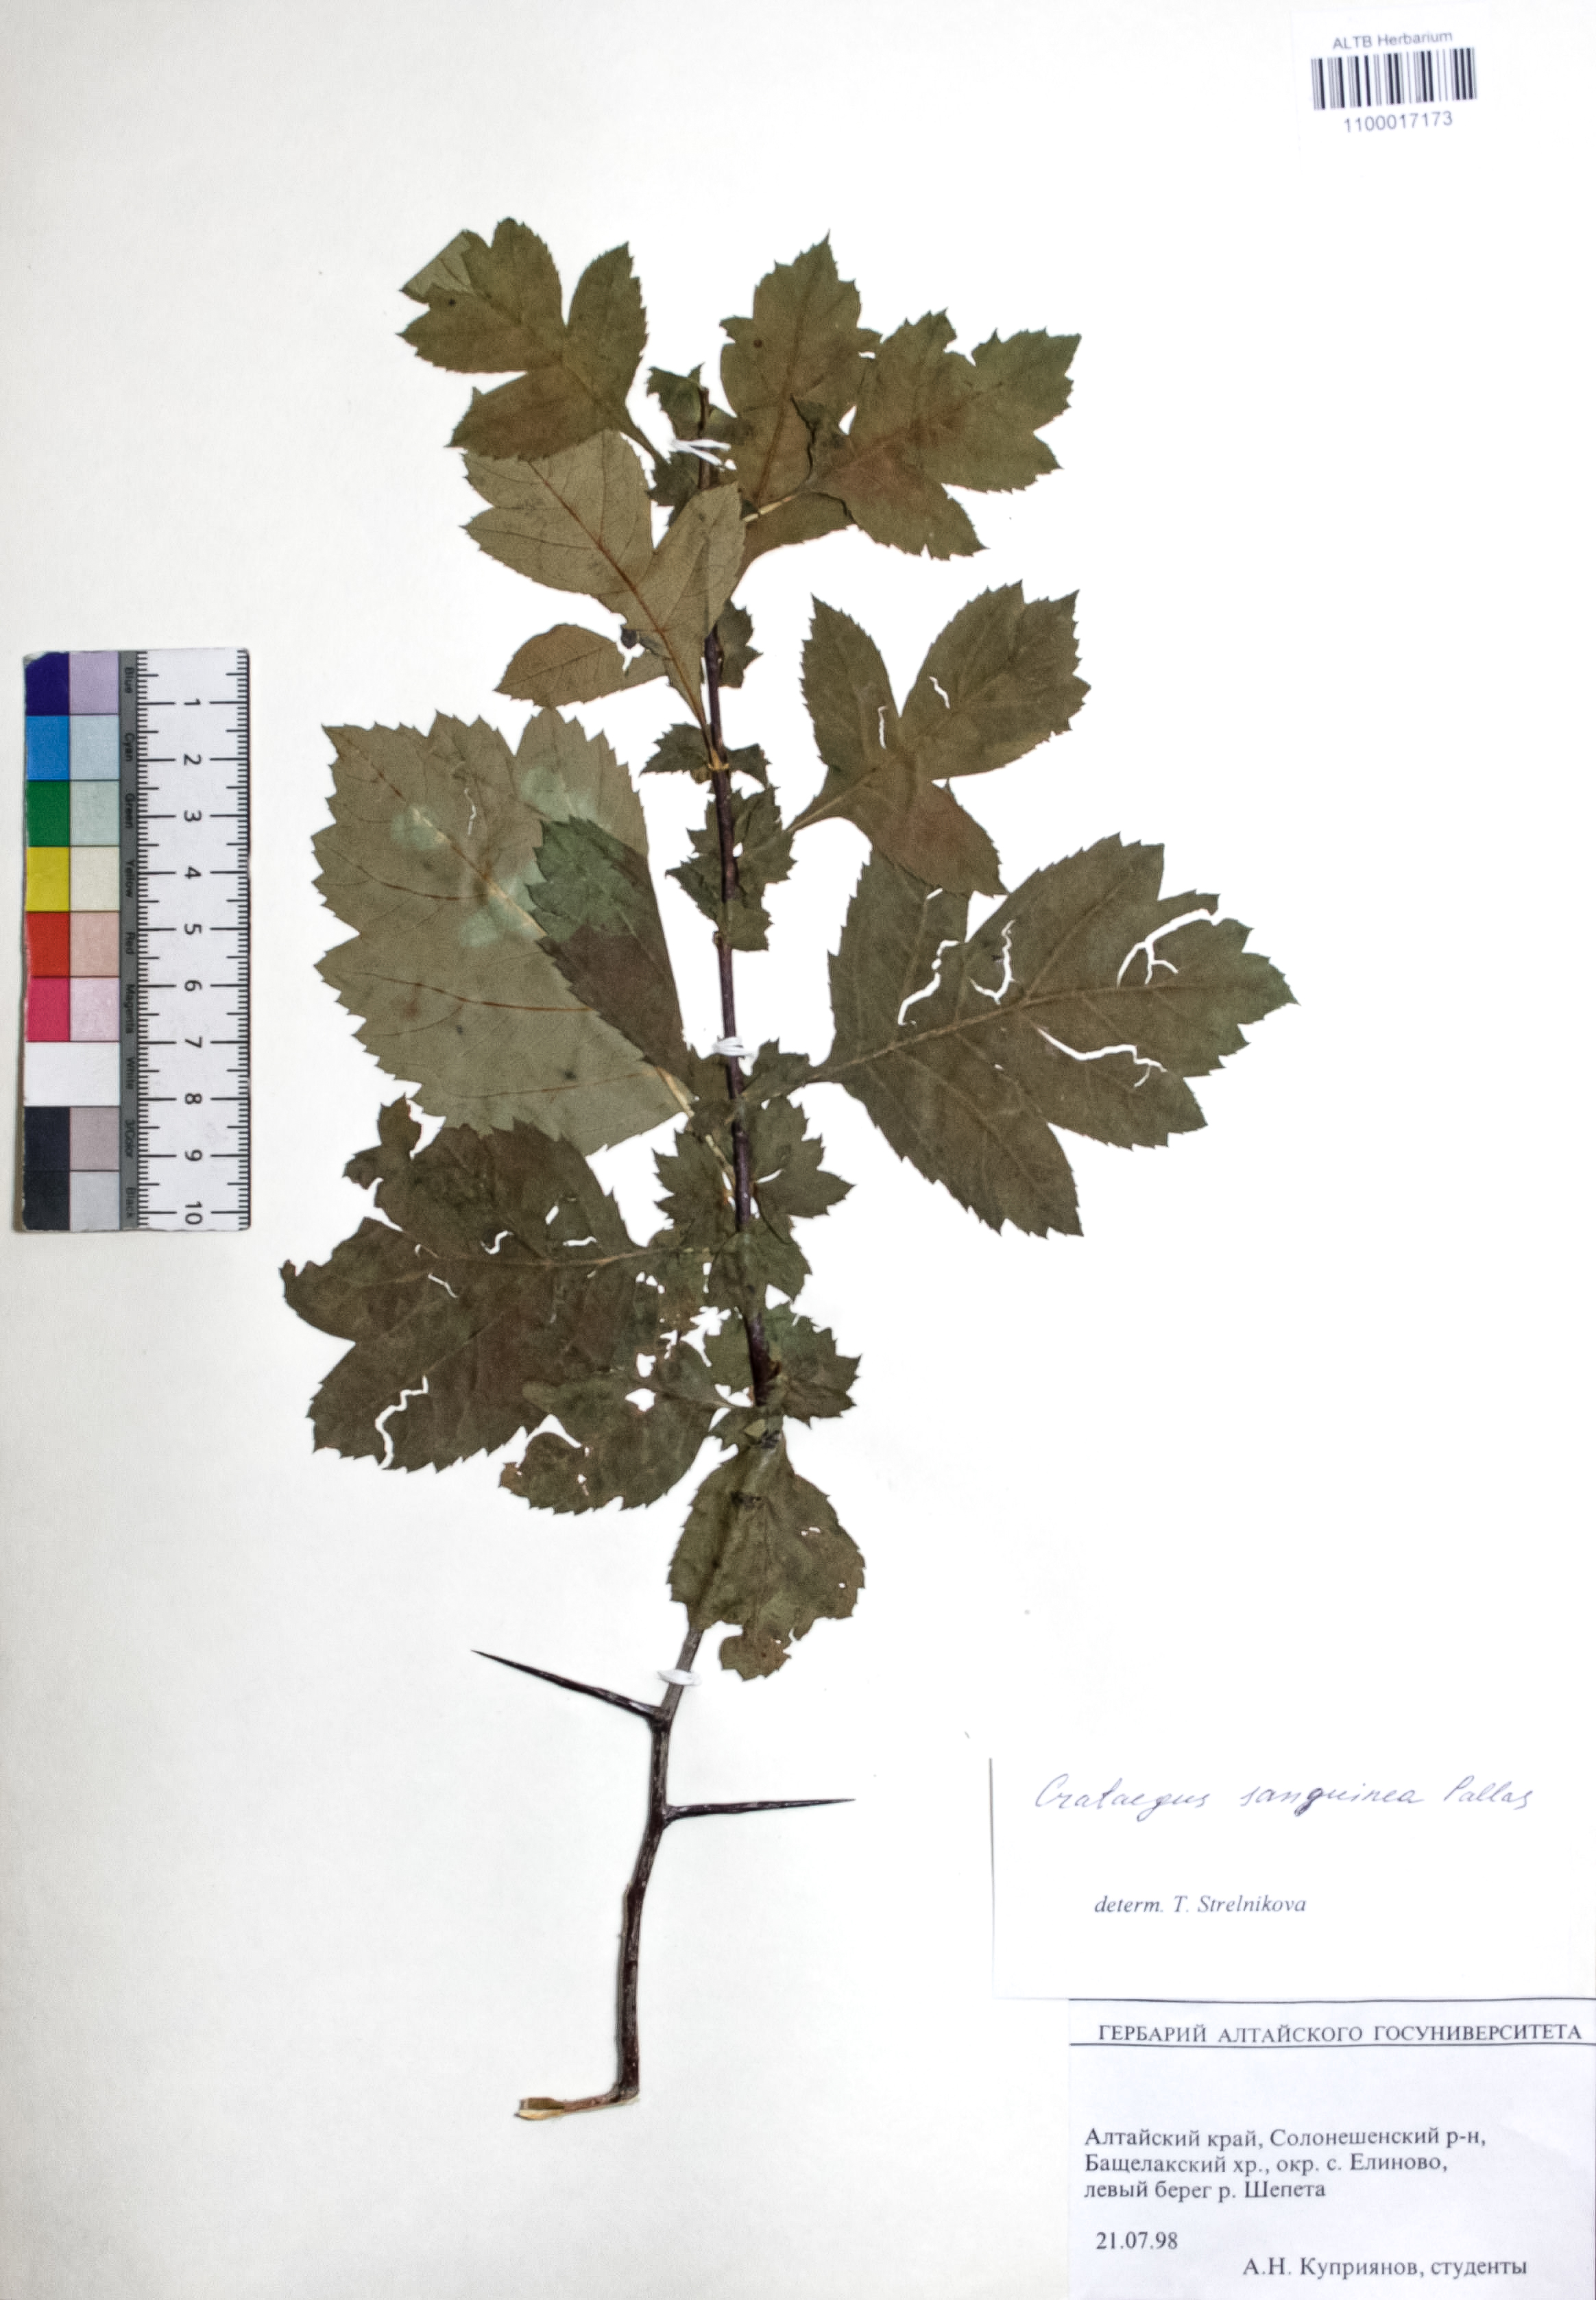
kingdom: Plantae
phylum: Tracheophyta
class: Magnoliopsida
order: Rosales
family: Rosaceae
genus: Crataegus
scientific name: Crataegus sanguinea
